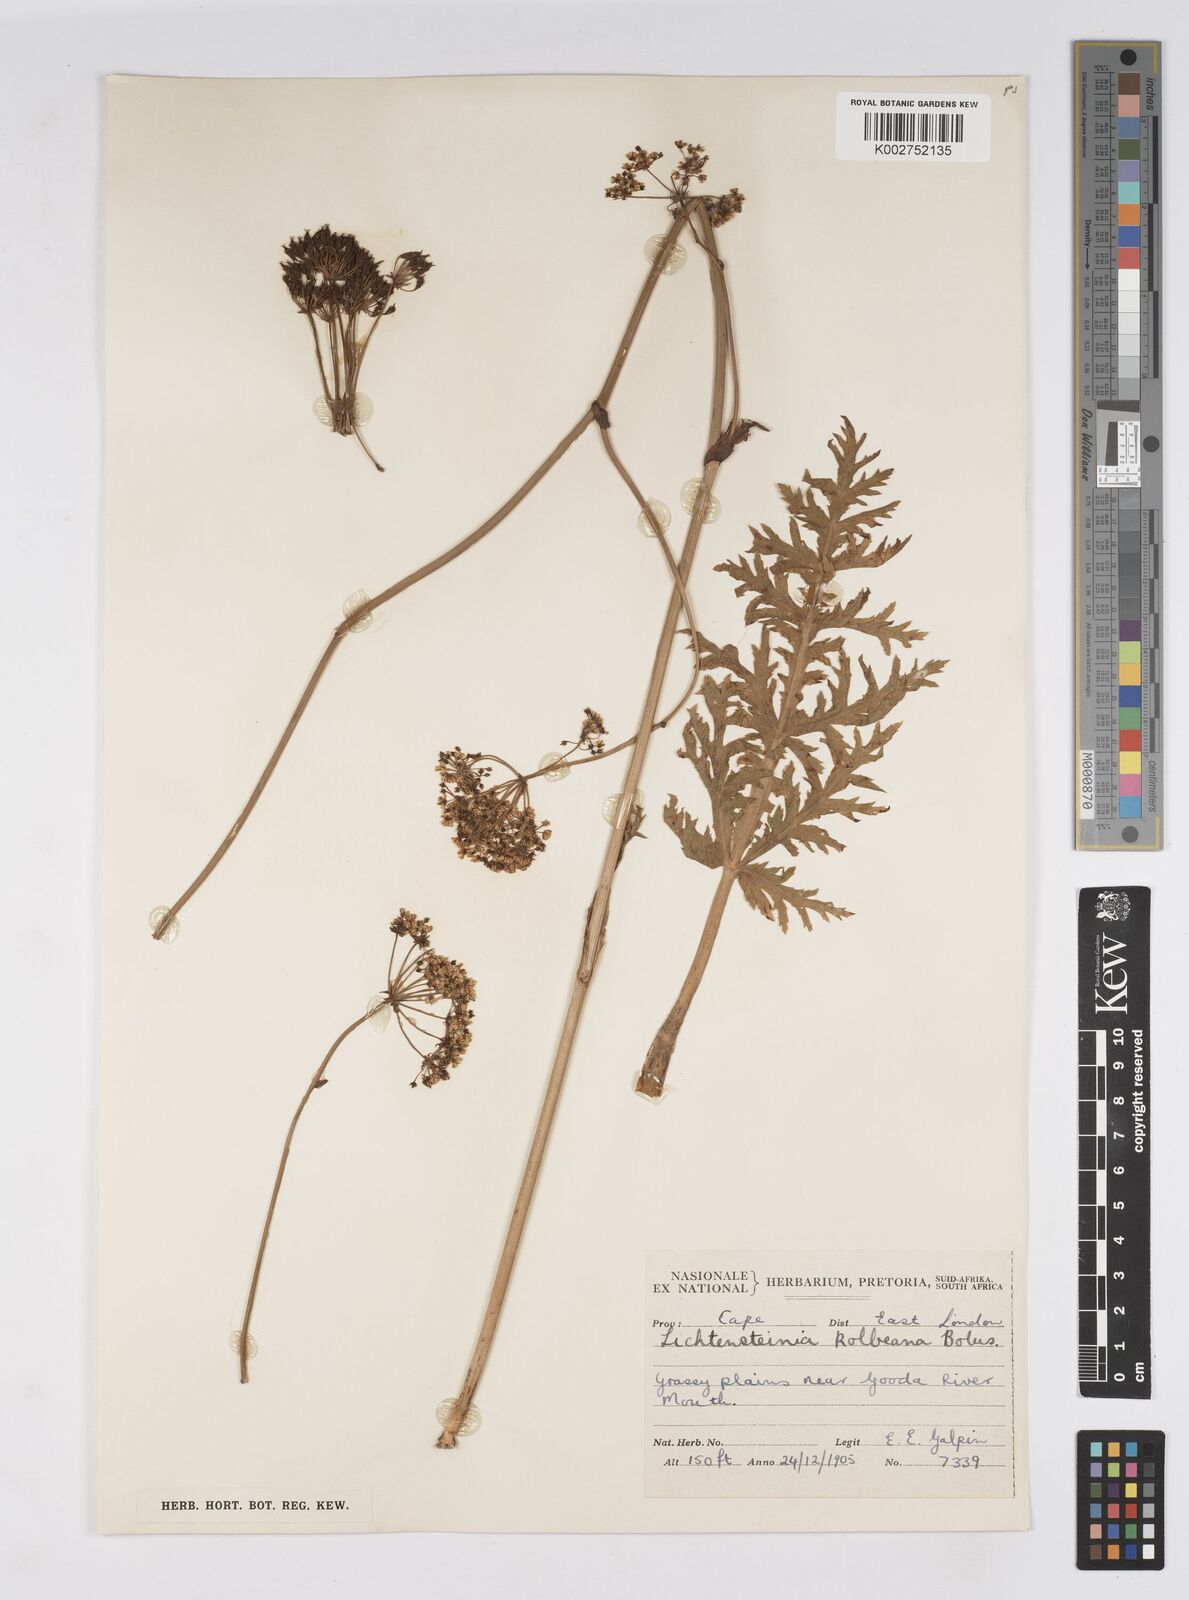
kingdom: Plantae
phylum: Tracheophyta
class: Magnoliopsida
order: Apiales
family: Apiaceae
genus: Lichtensteinia
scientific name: Lichtensteinia interrupta
